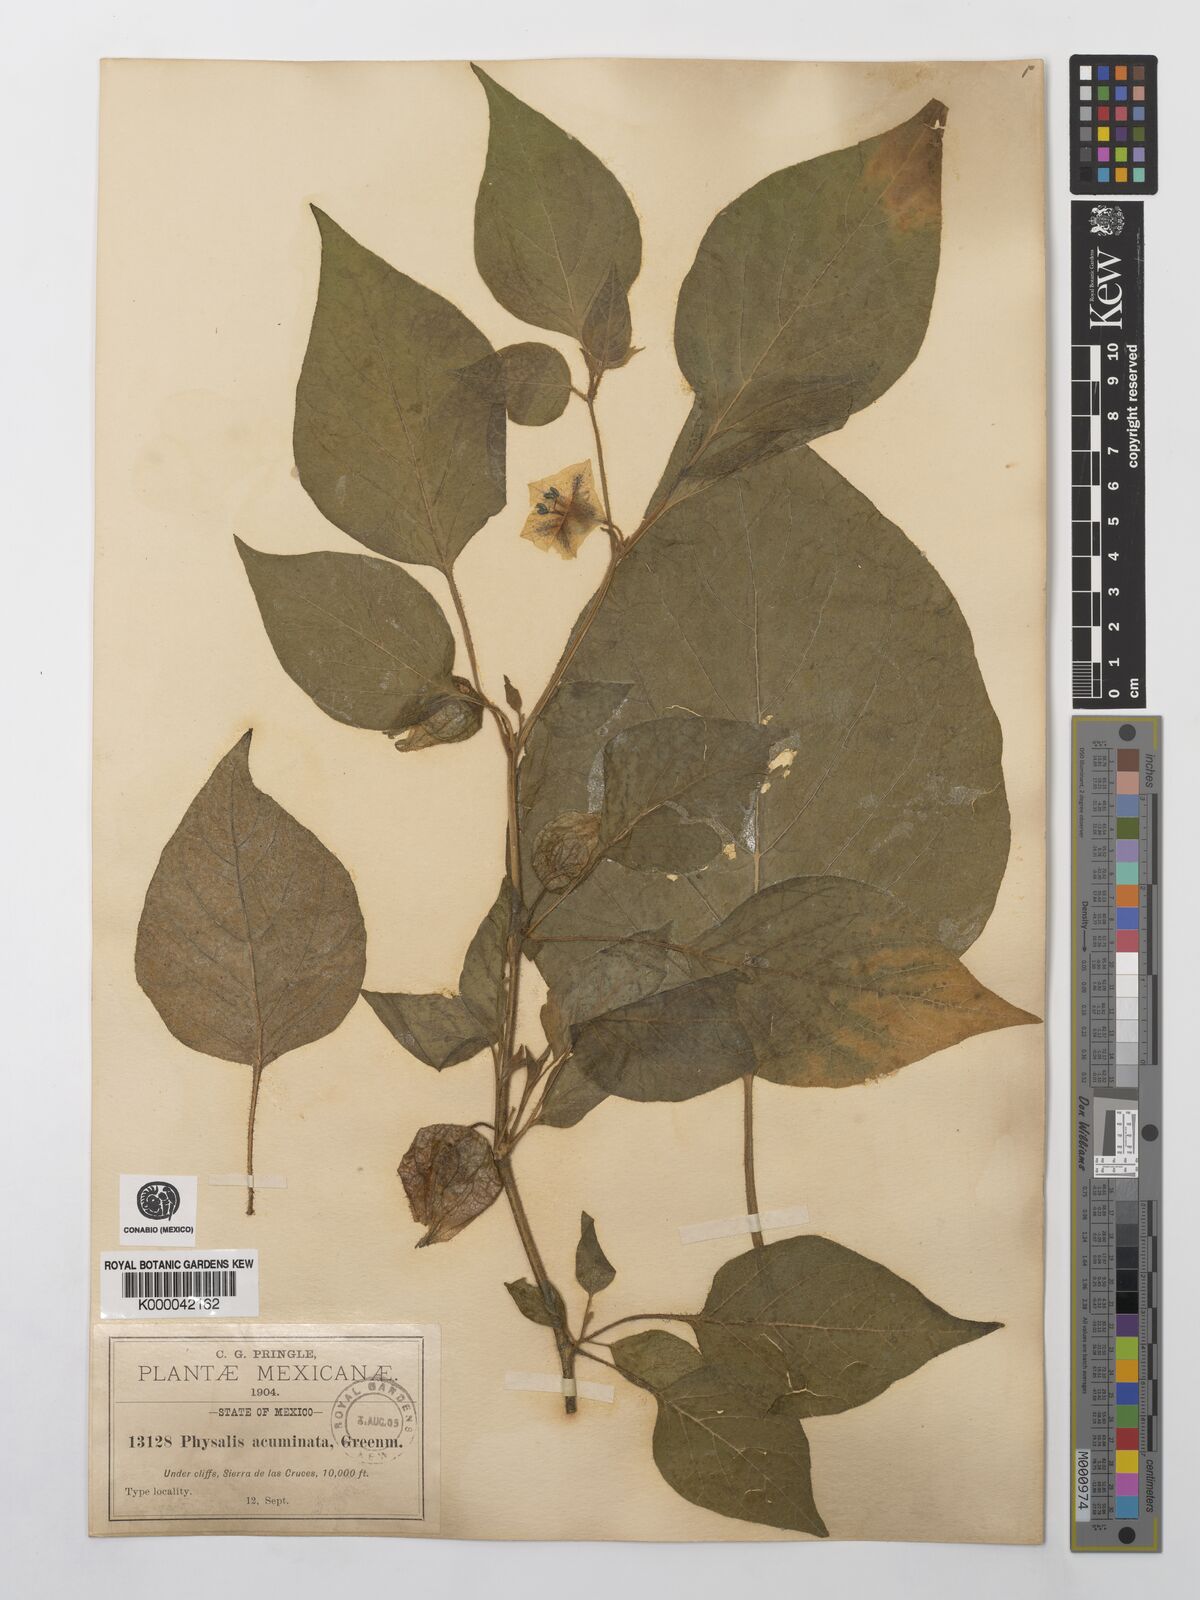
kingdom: Plantae
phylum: Tracheophyta
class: Magnoliopsida
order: Solanales
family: Solanaceae
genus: Physalis
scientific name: Physalis stapelioides
